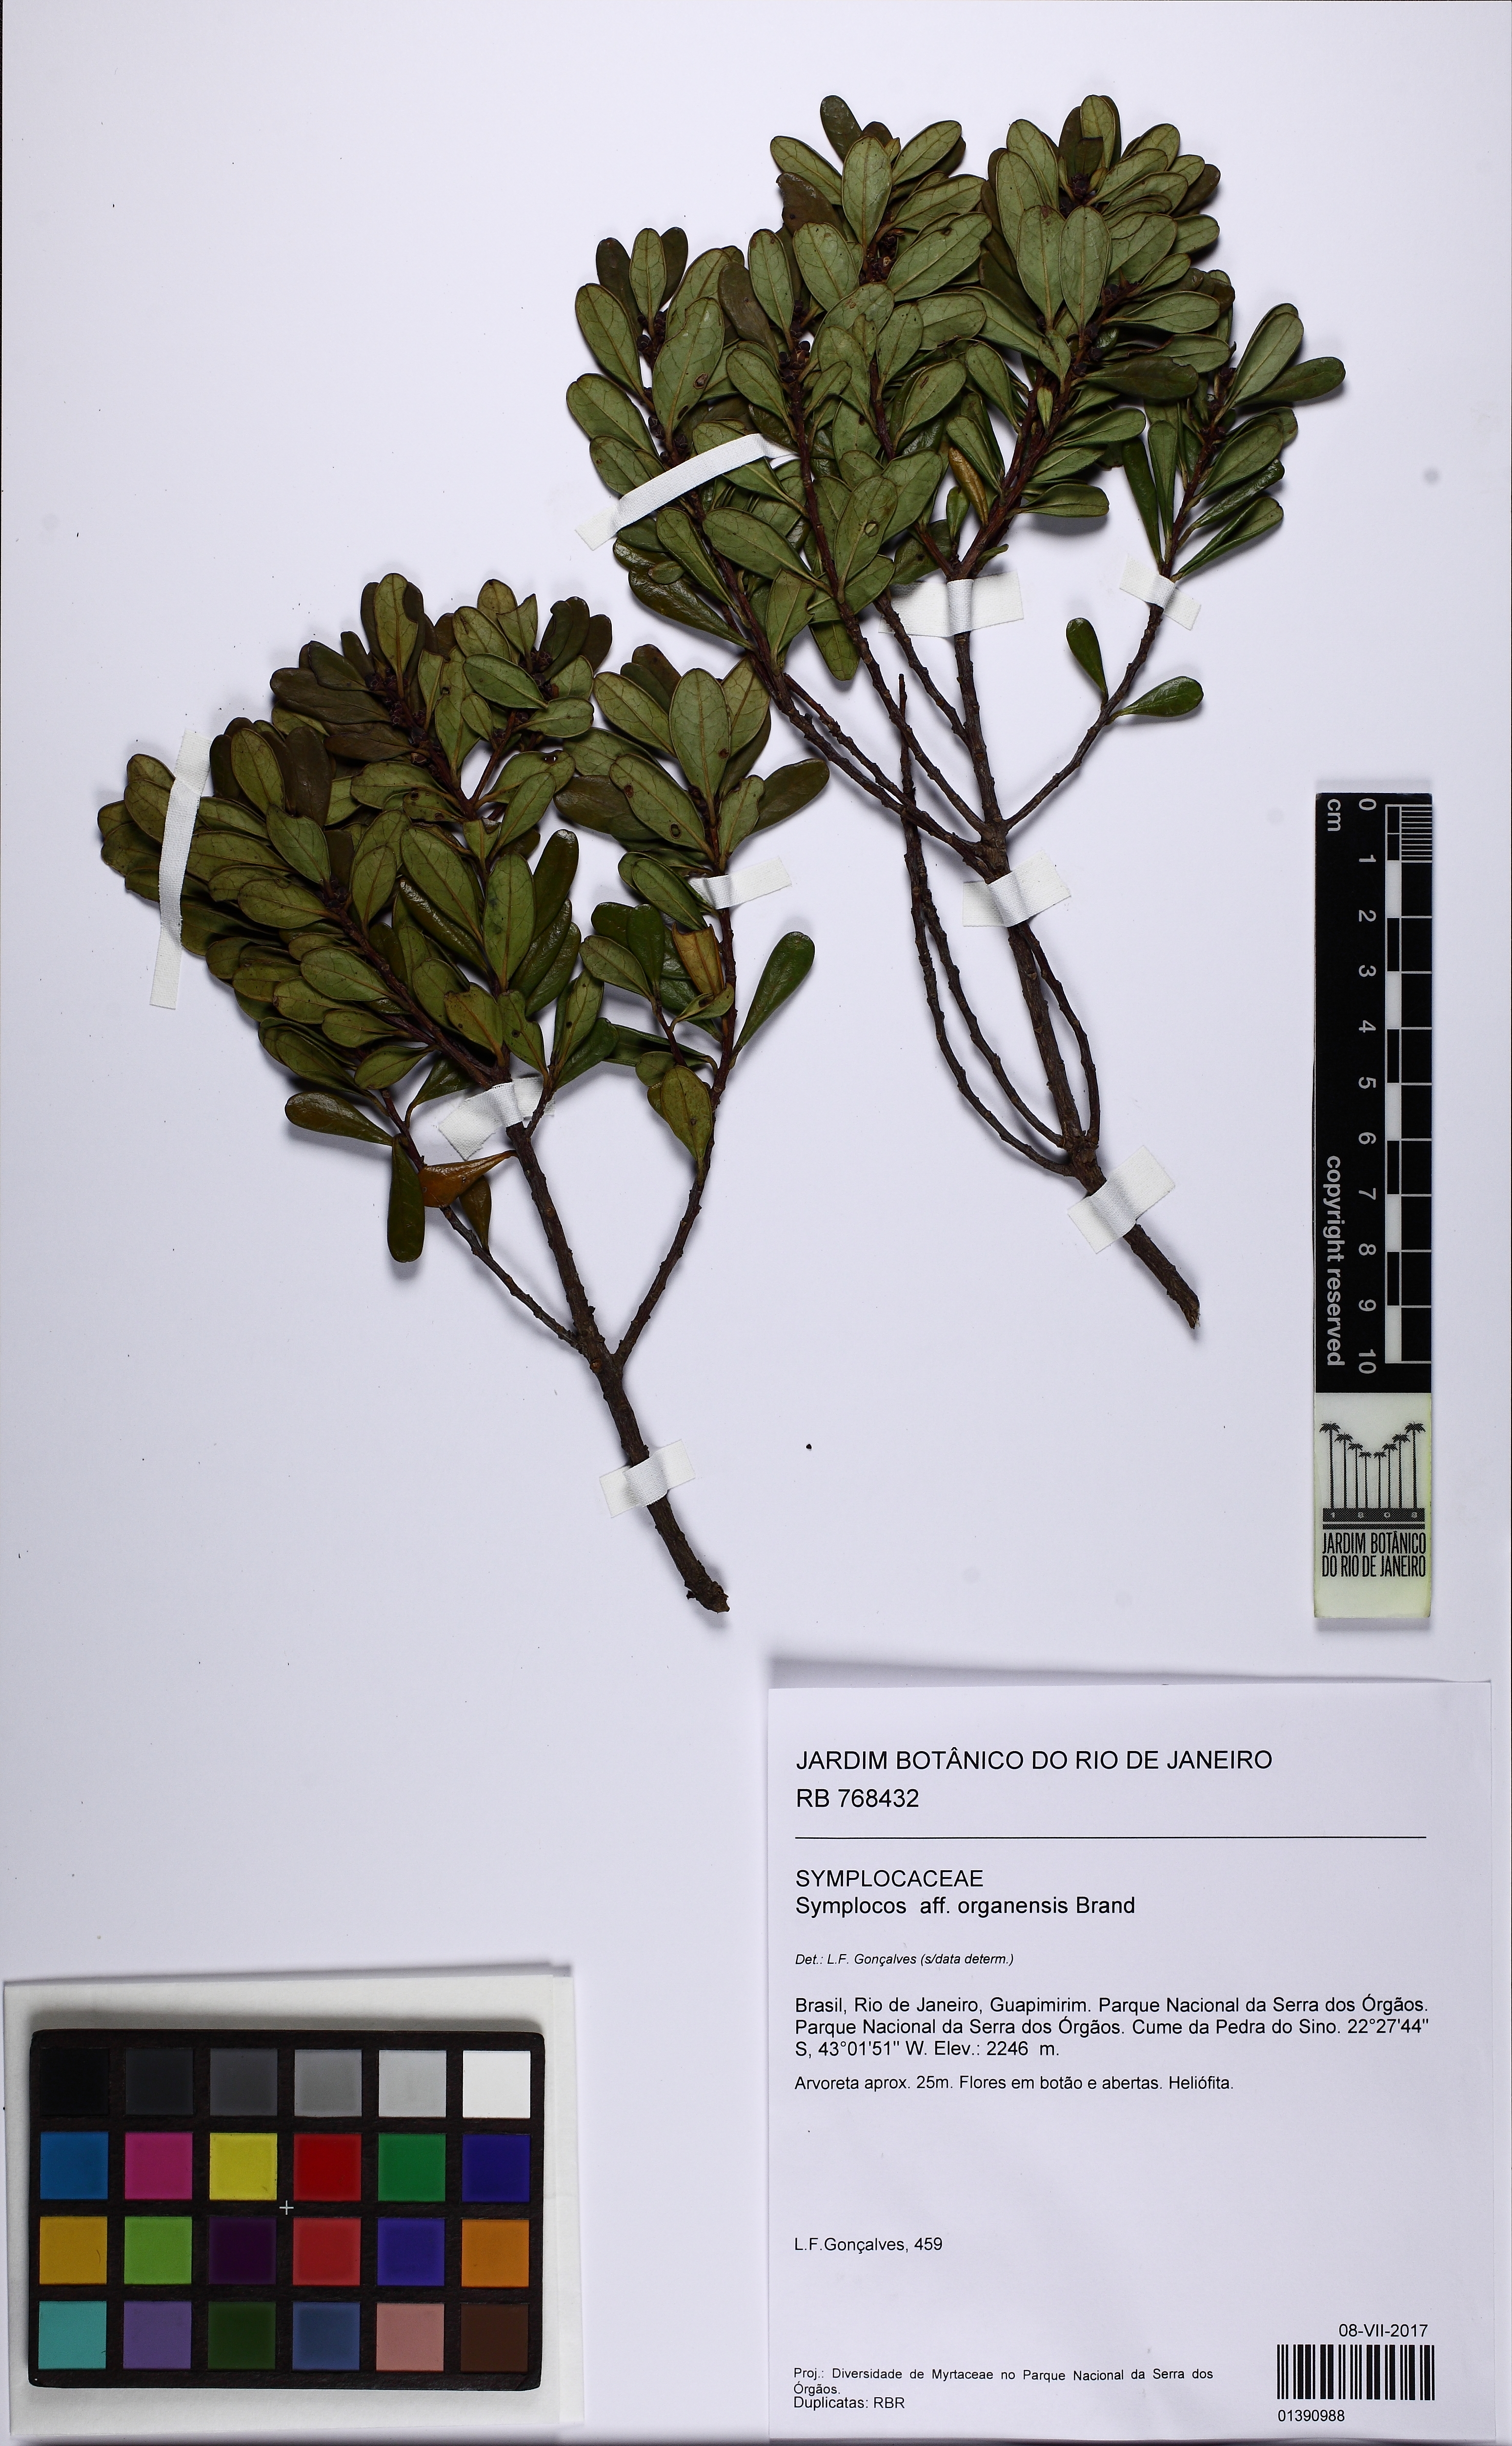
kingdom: Plantae
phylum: Tracheophyta
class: Magnoliopsida
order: Ericales
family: Symplocaceae
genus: Symplocos
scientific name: Symplocos organensis
